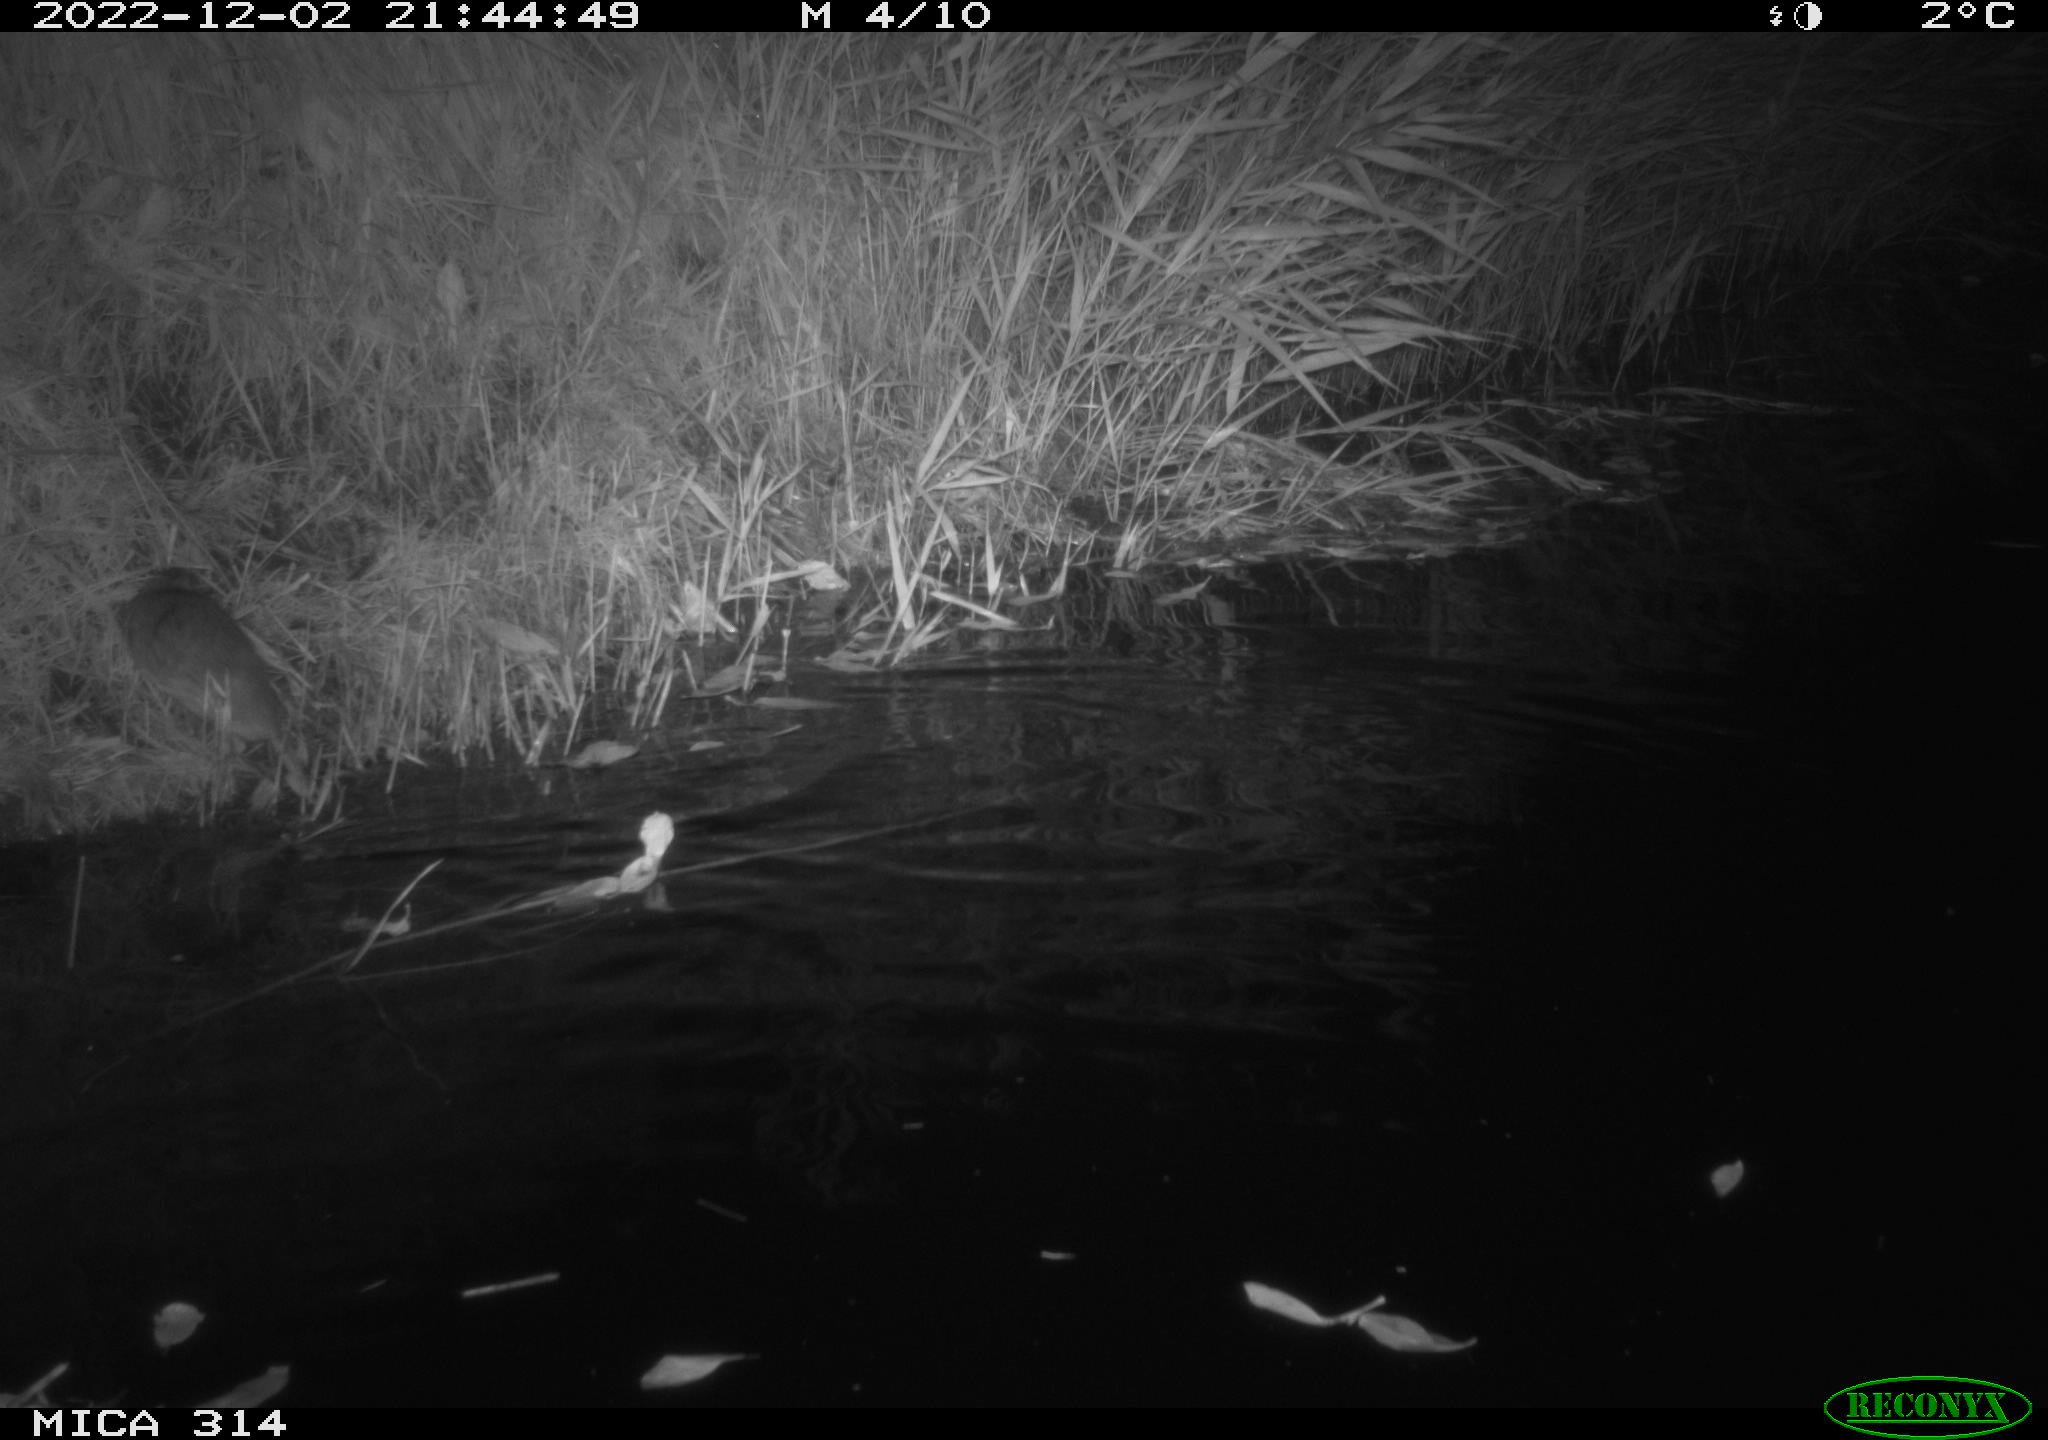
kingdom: Animalia
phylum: Chordata
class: Mammalia
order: Rodentia
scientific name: Rodentia
